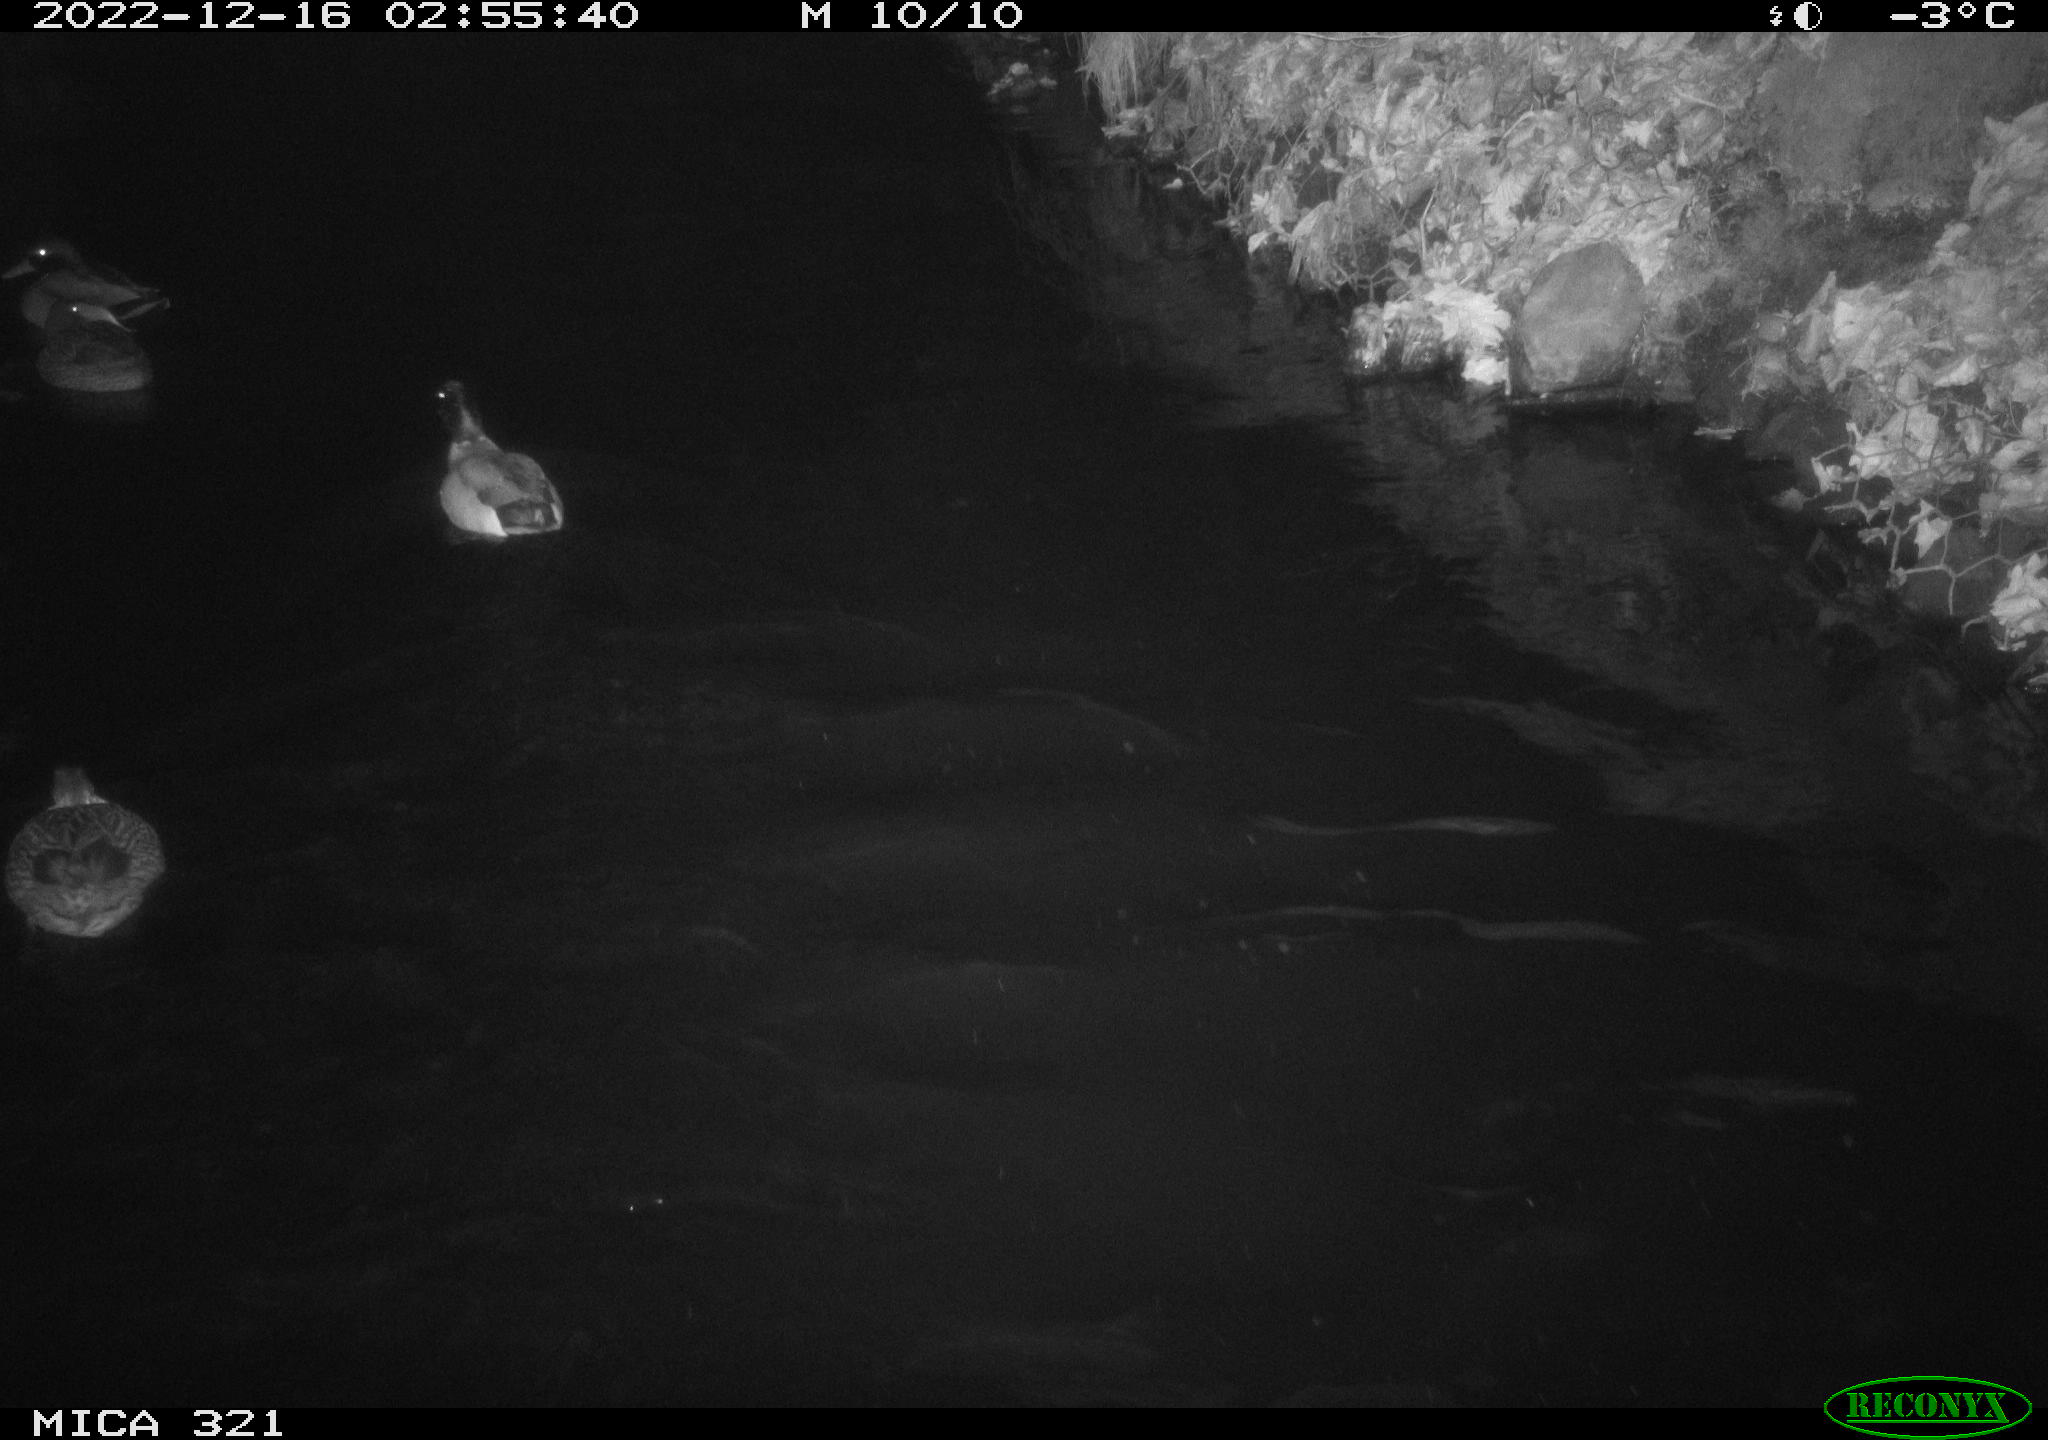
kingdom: Animalia
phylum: Chordata
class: Aves
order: Anseriformes
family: Anatidae
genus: Anas
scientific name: Anas
